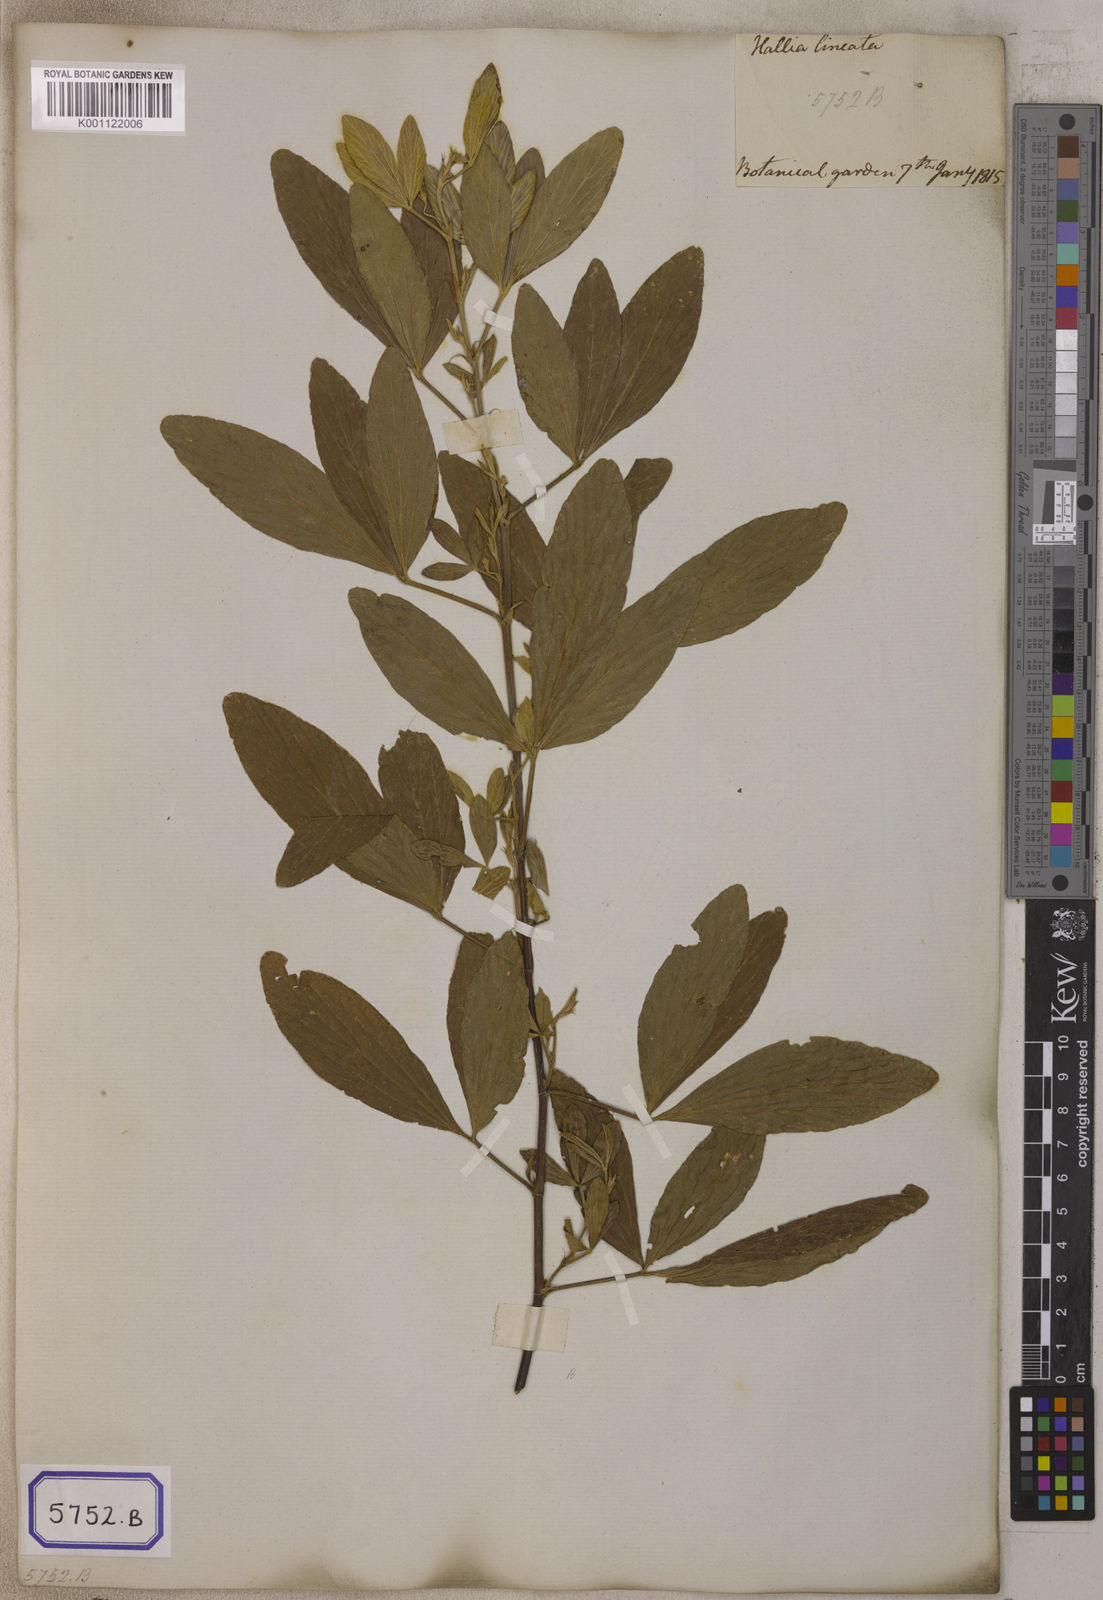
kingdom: Plantae
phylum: Tracheophyta
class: Magnoliopsida
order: Fabales
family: Fabaceae
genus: Flemingia
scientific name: Flemingia lineata
